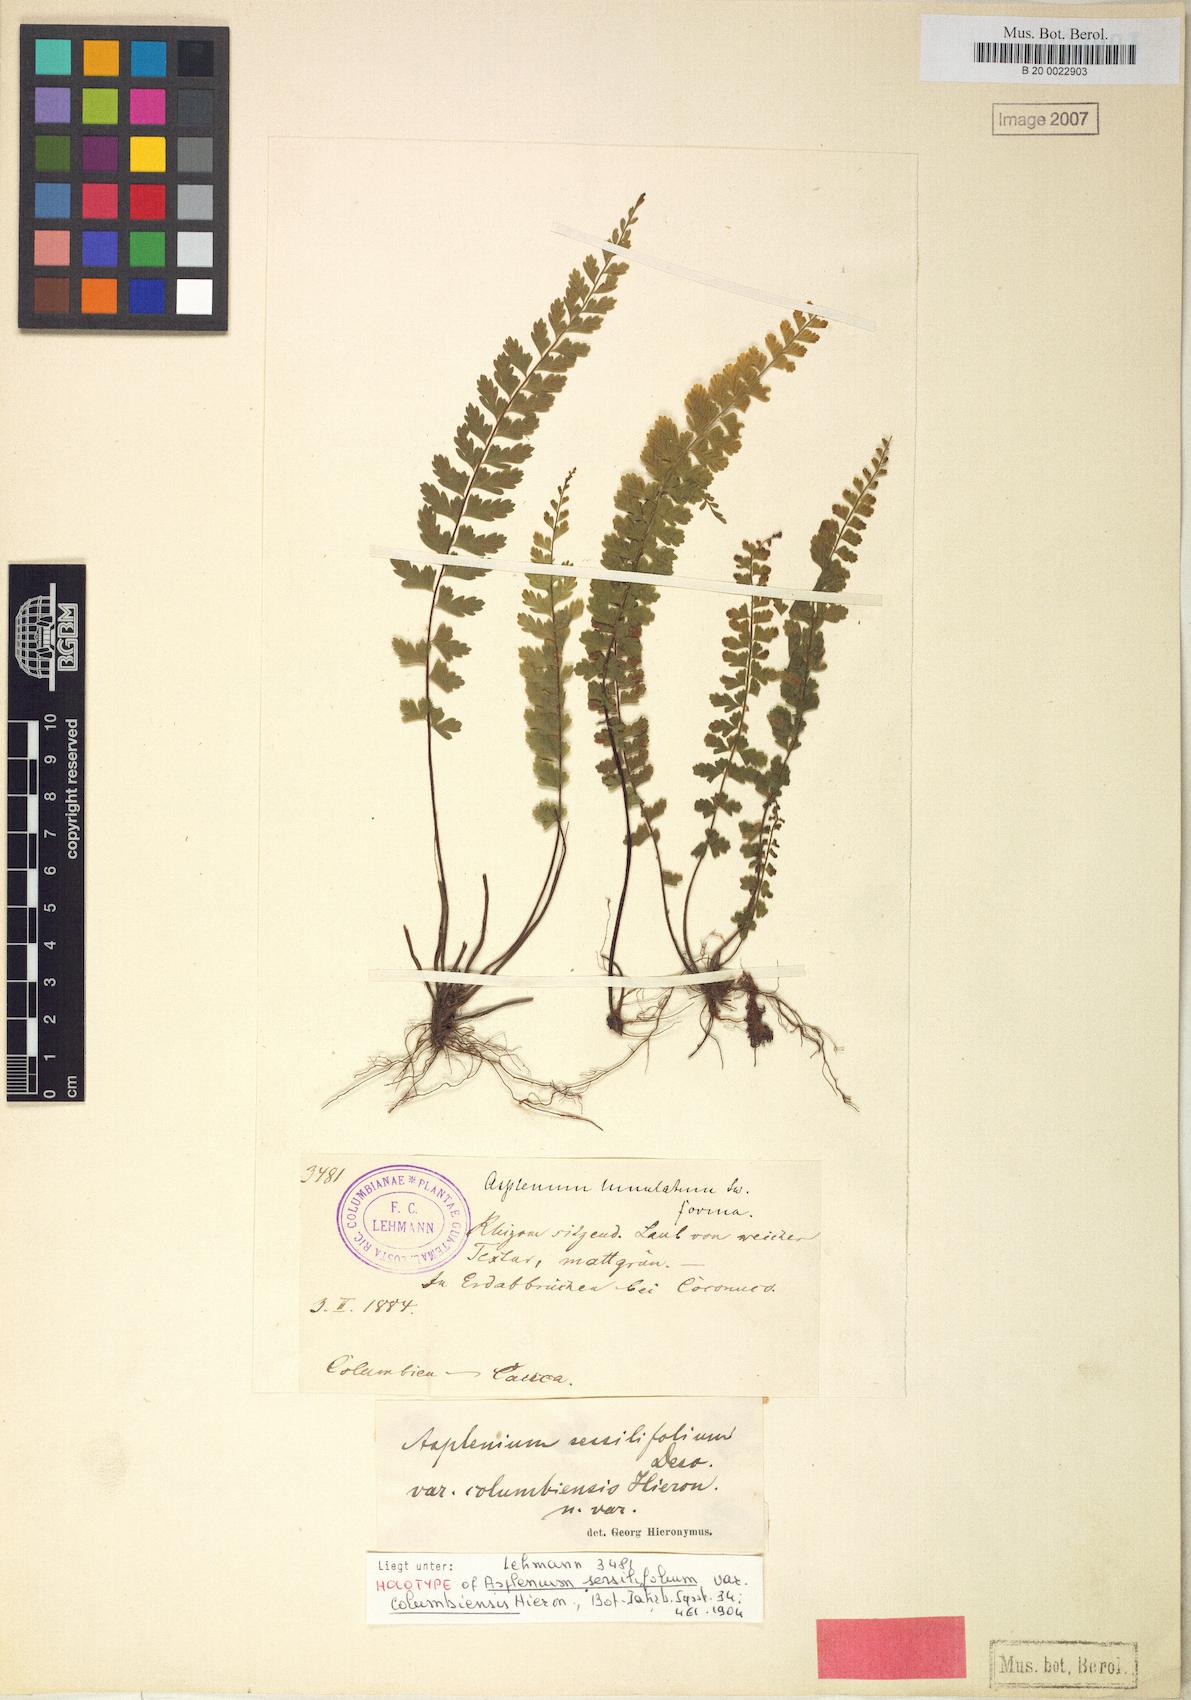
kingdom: Plantae
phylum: Tracheophyta
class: Polypodiopsida
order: Polypodiales
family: Aspleniaceae
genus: Asplenium
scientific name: Asplenium sessilifolium
